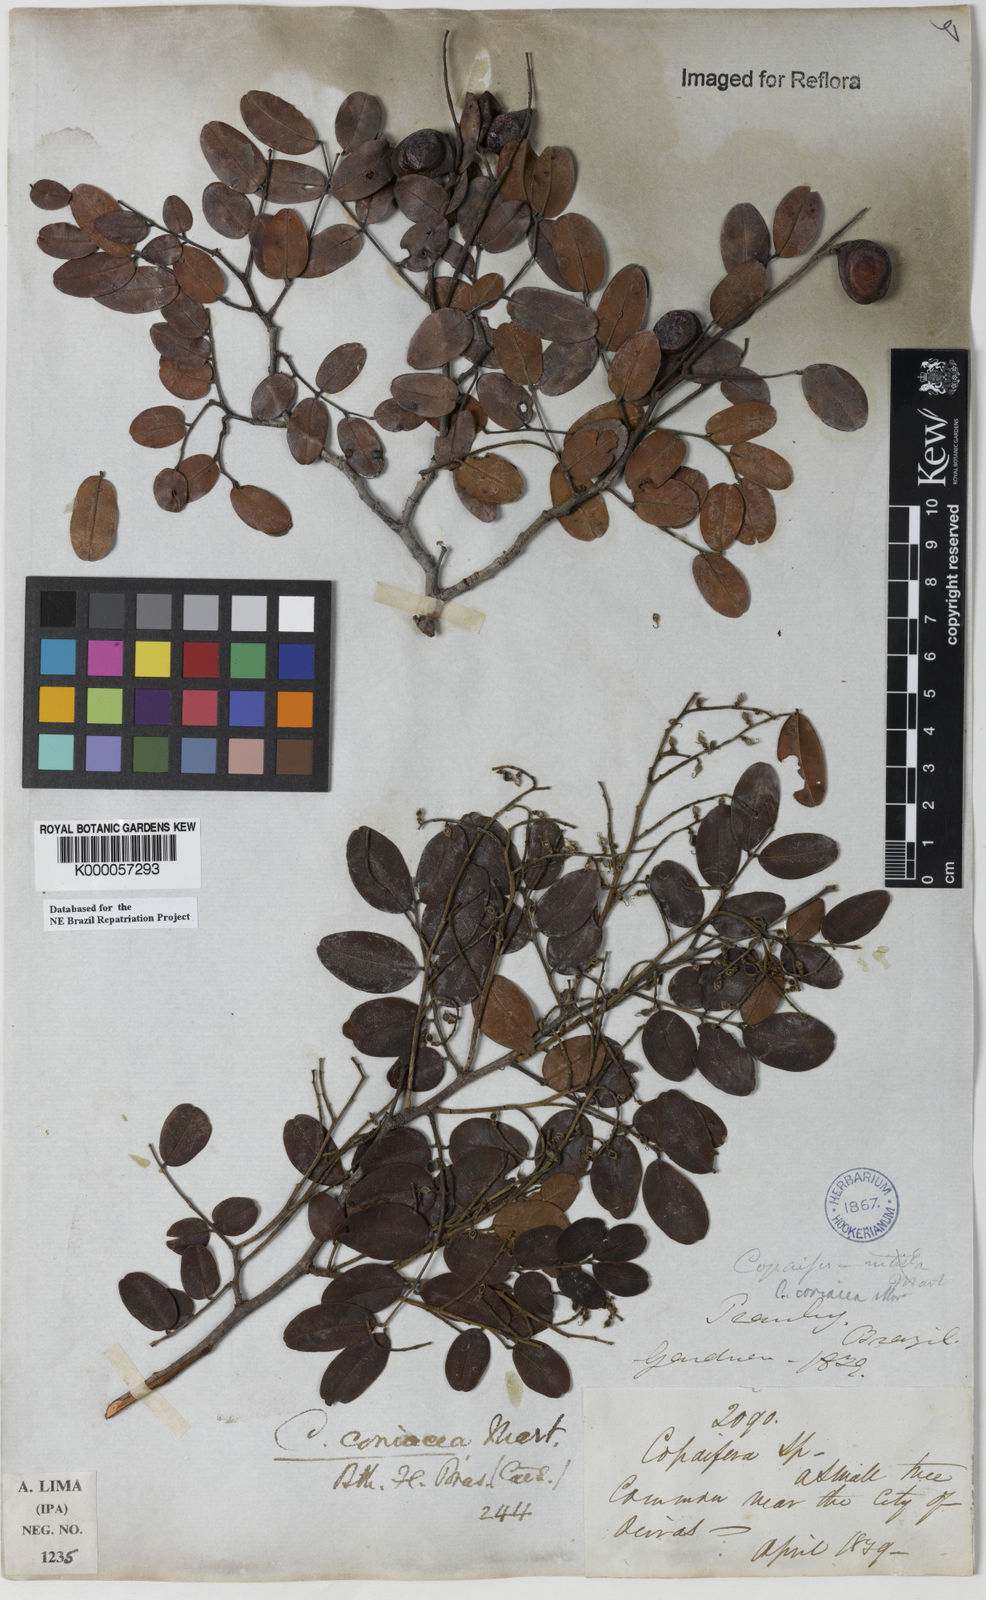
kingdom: Plantae
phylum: Tracheophyta
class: Magnoliopsida
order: Fabales
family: Fabaceae
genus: Copaifera
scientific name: Copaifera coriacea
